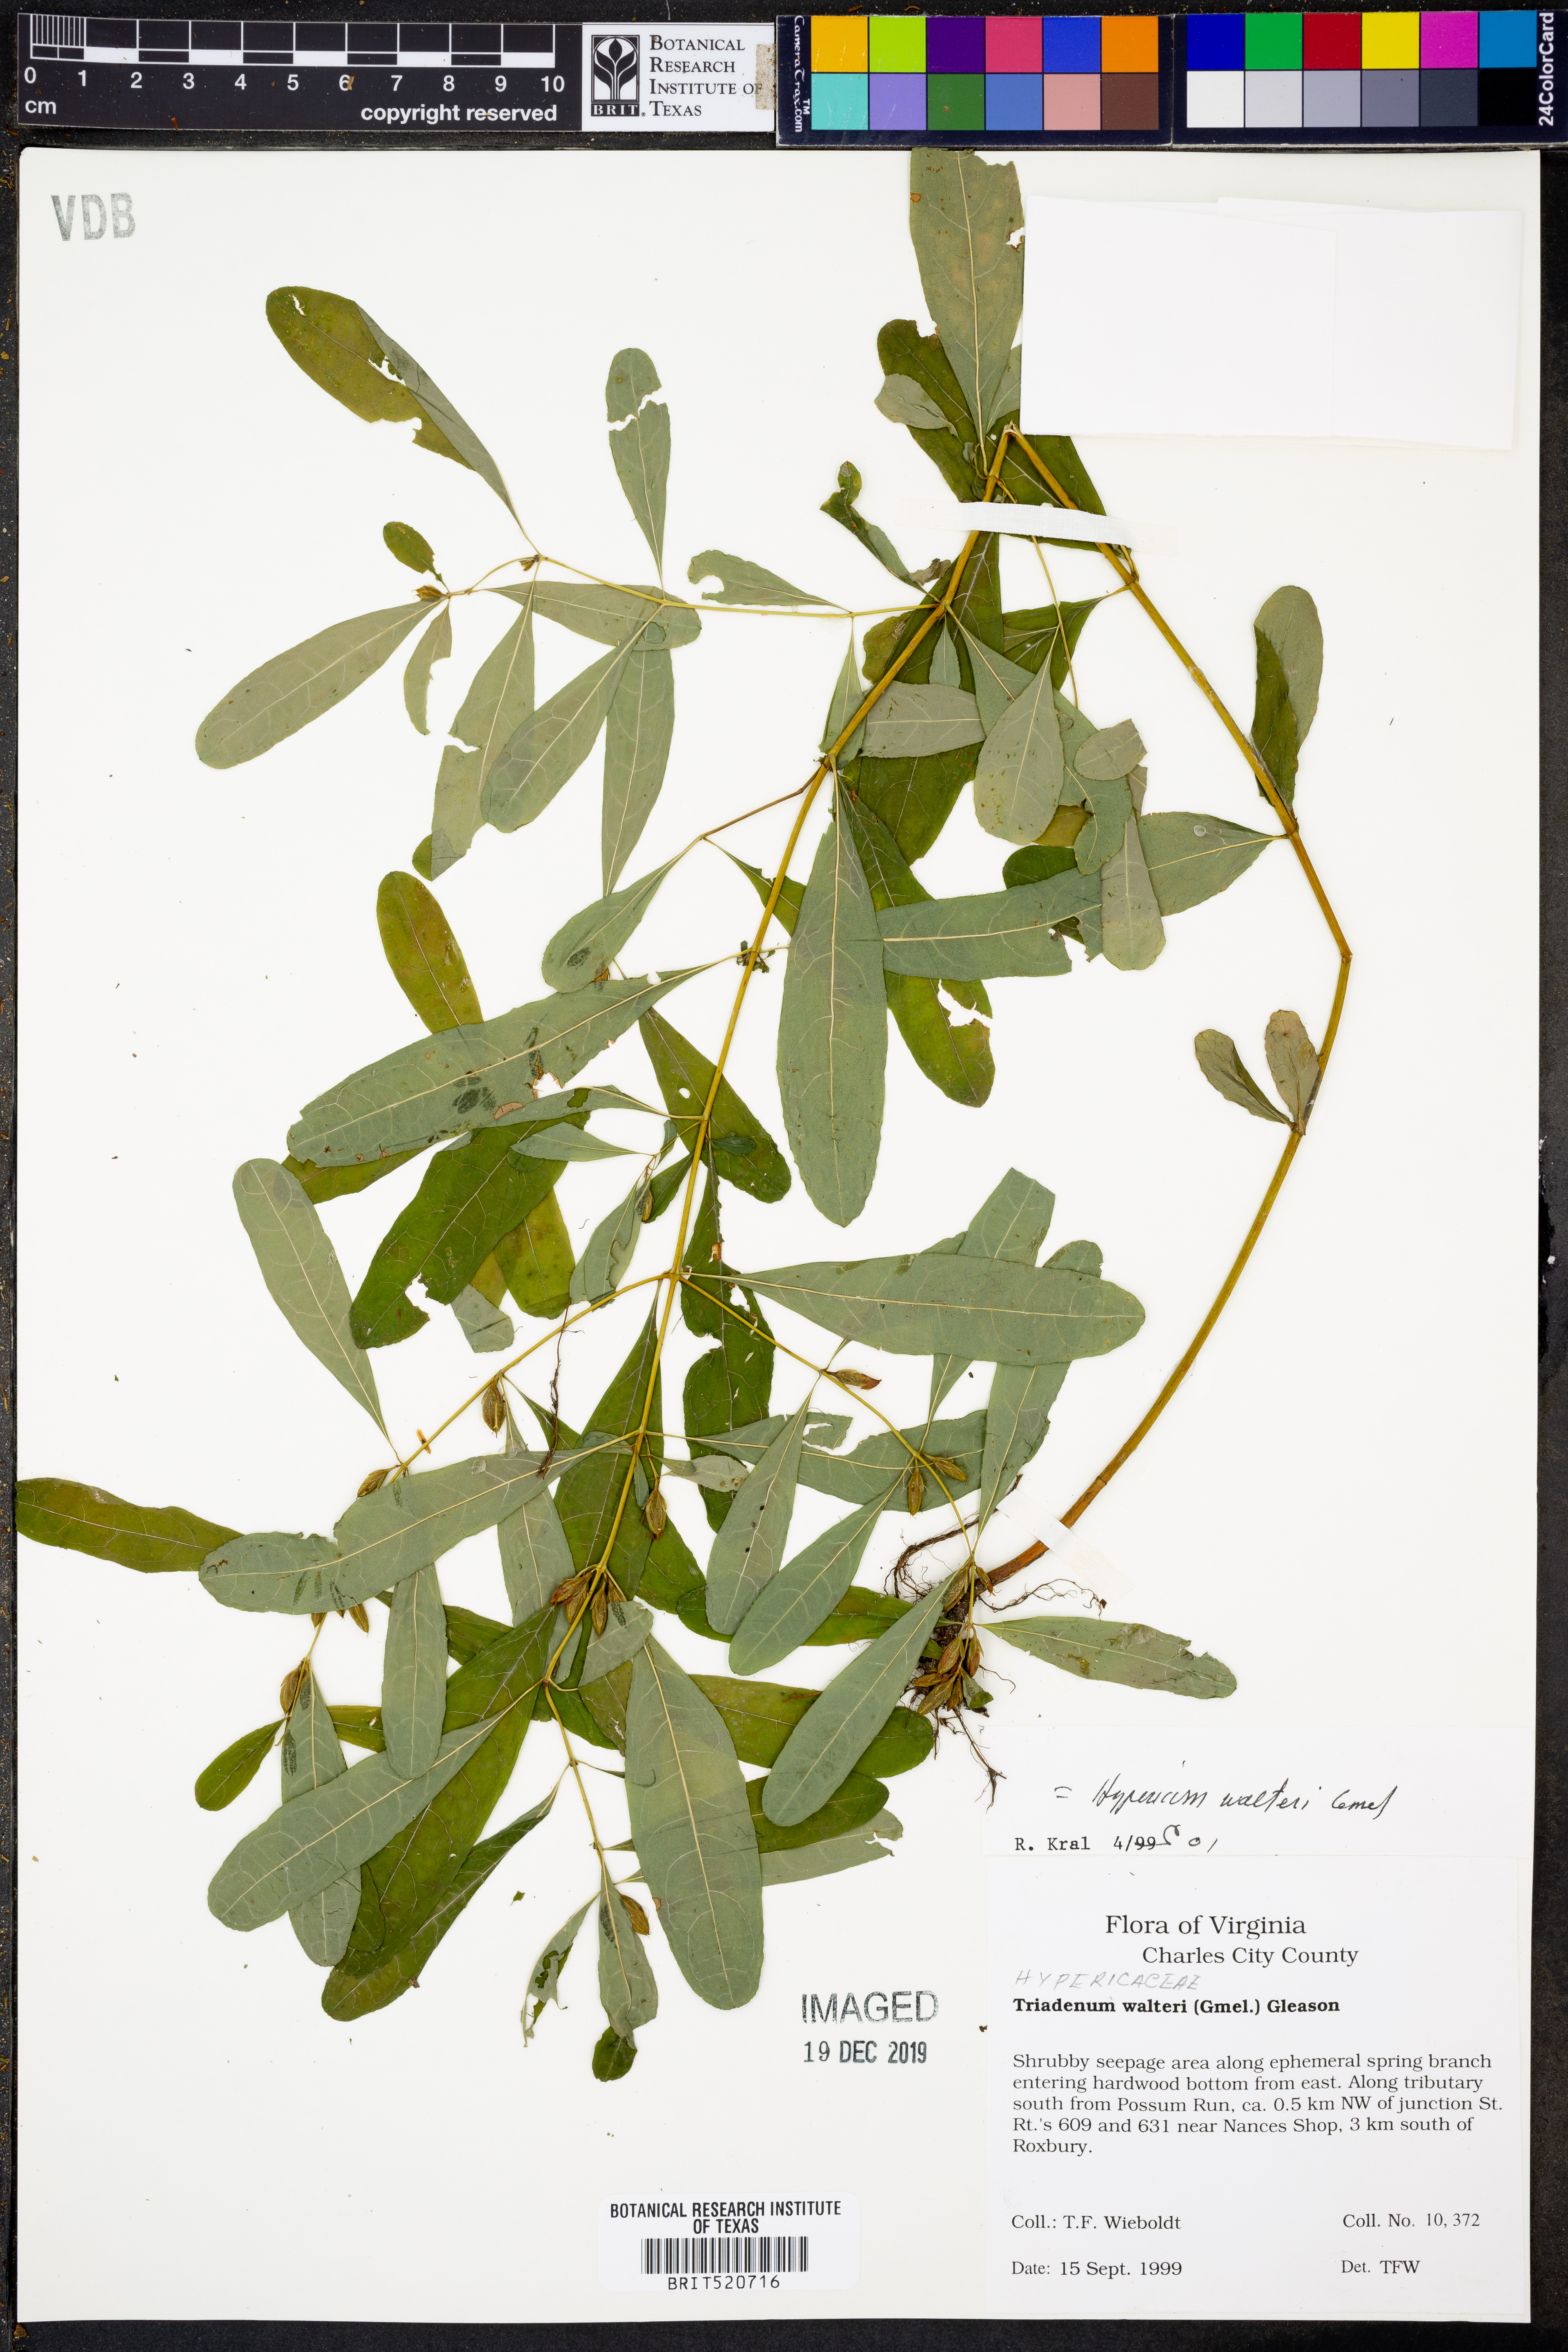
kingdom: Plantae
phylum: Tracheophyta
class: Magnoliopsida
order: Malpighiales
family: Hypericaceae
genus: Triadenum
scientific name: Triadenum walteri
